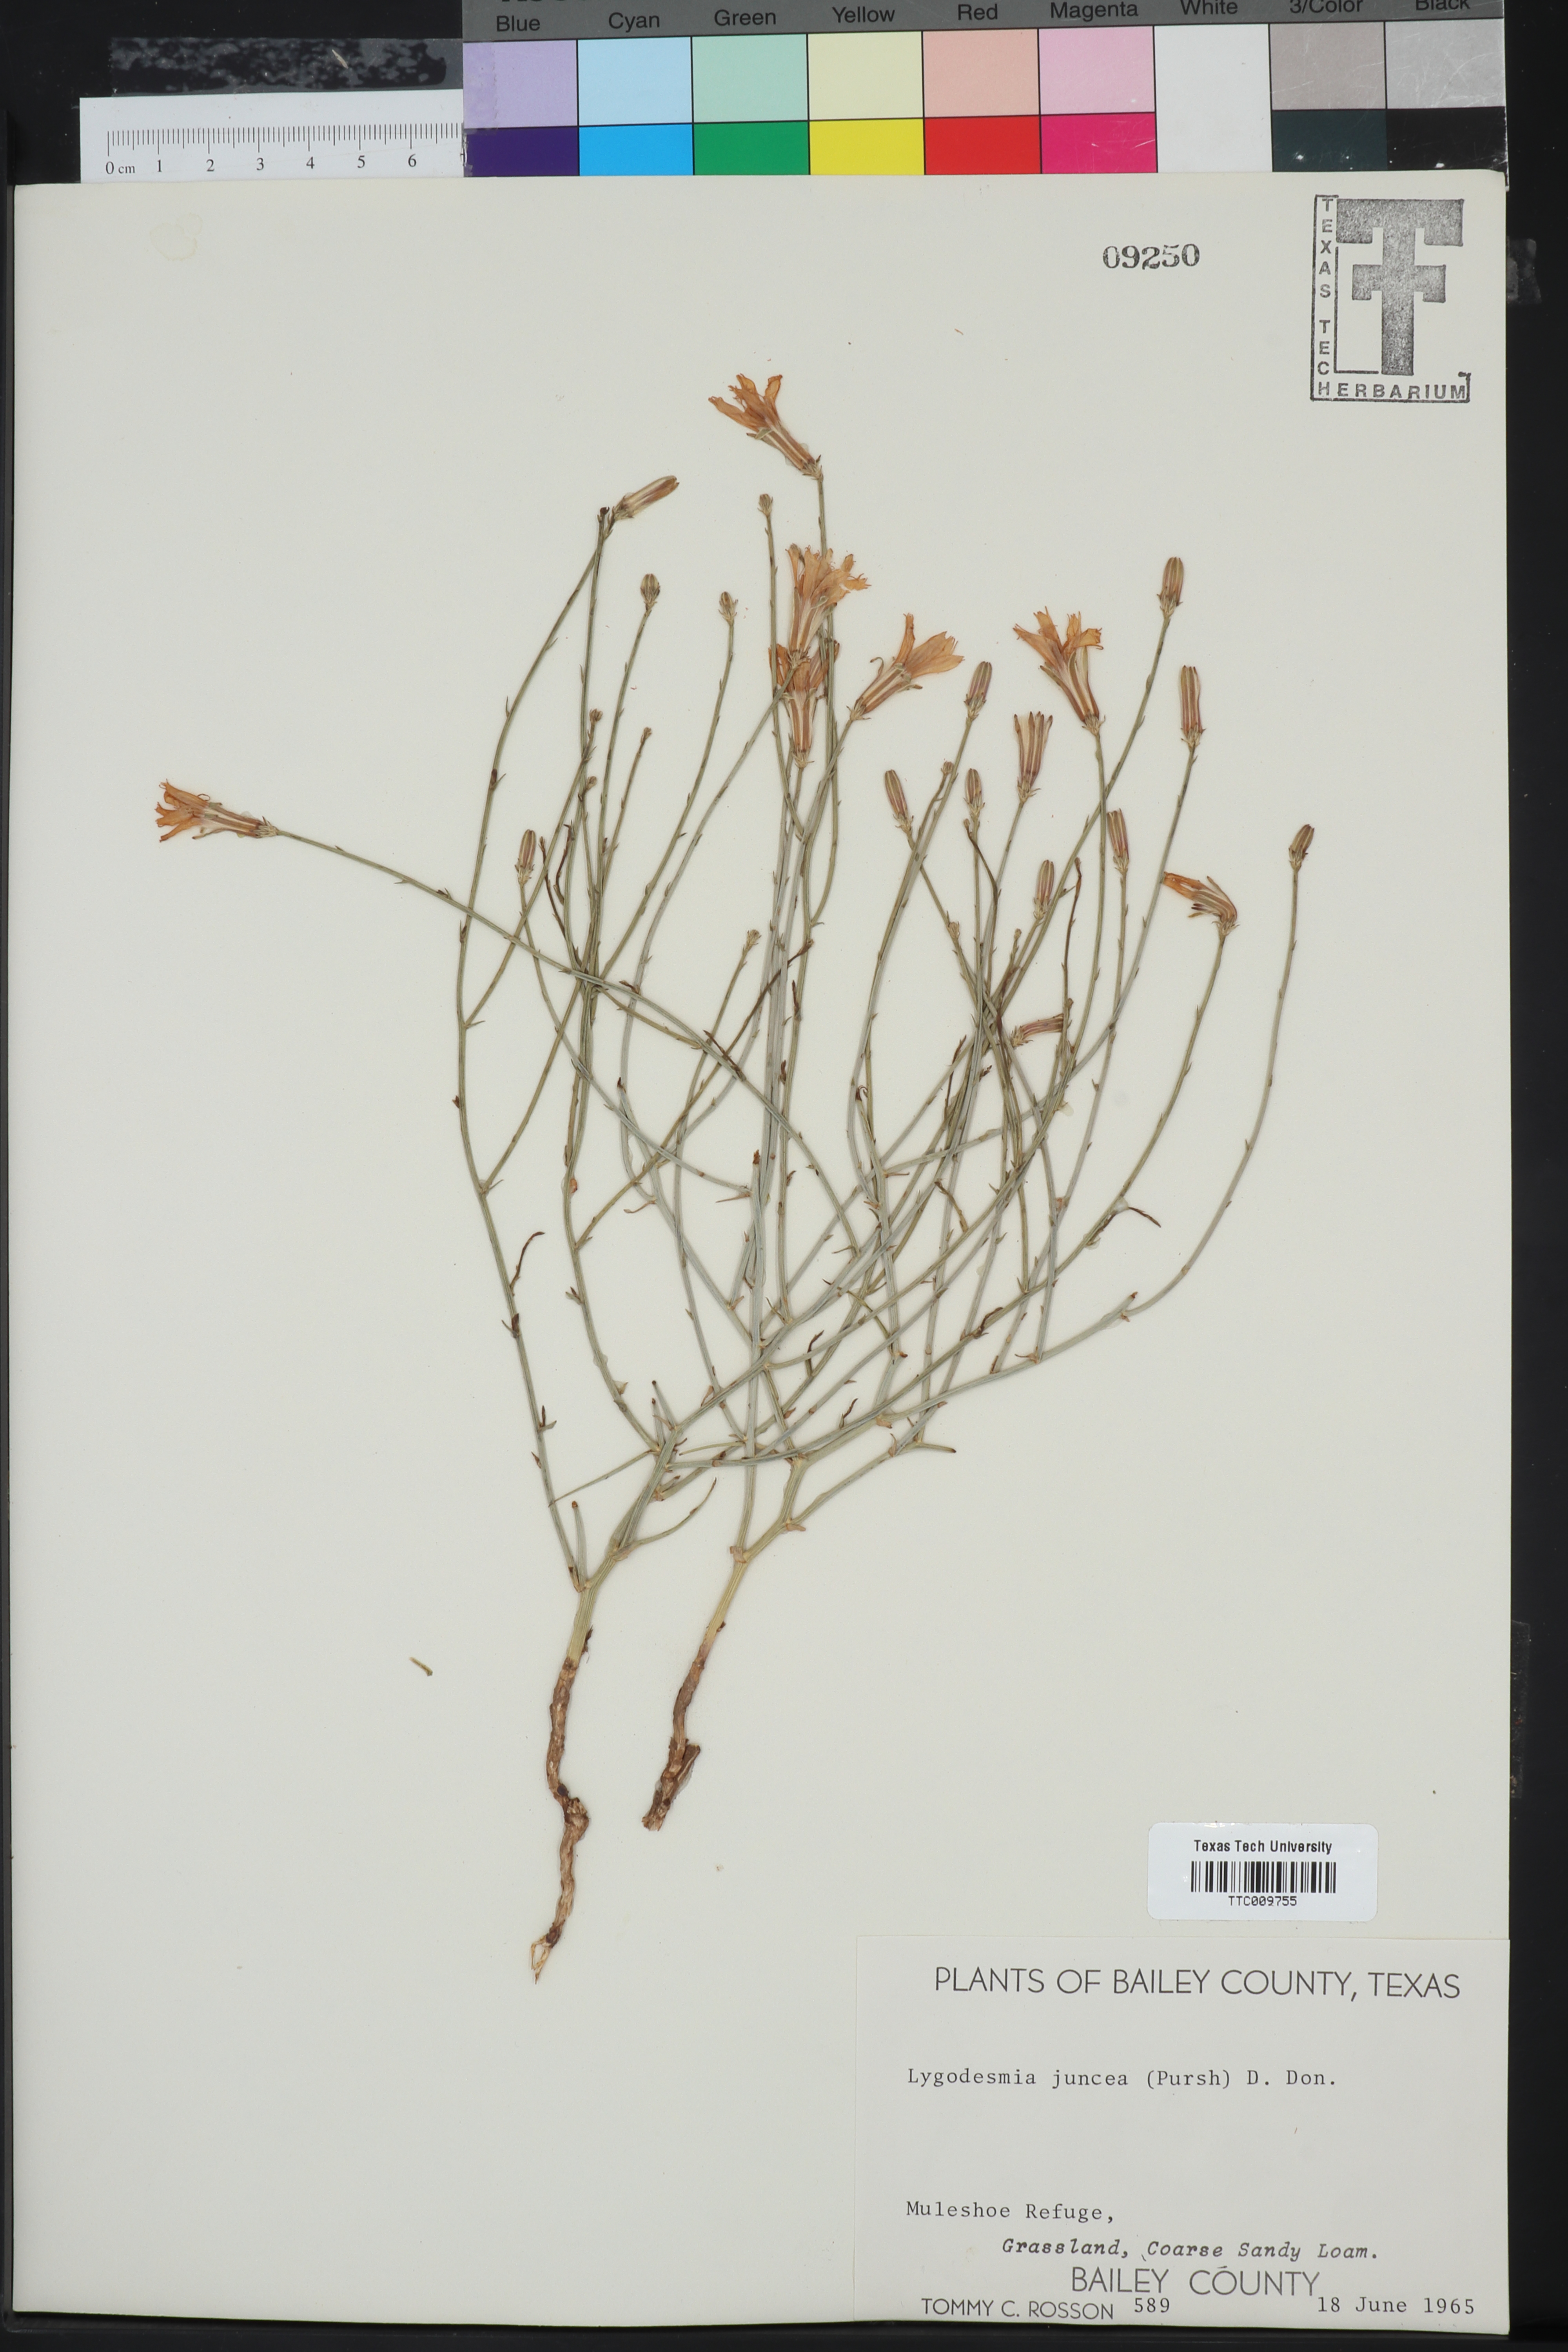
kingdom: Plantae
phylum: Tracheophyta
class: Magnoliopsida
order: Asterales
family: Asteraceae
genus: Lygodesmia
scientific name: Lygodesmia juncea
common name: Common skeletonweed
